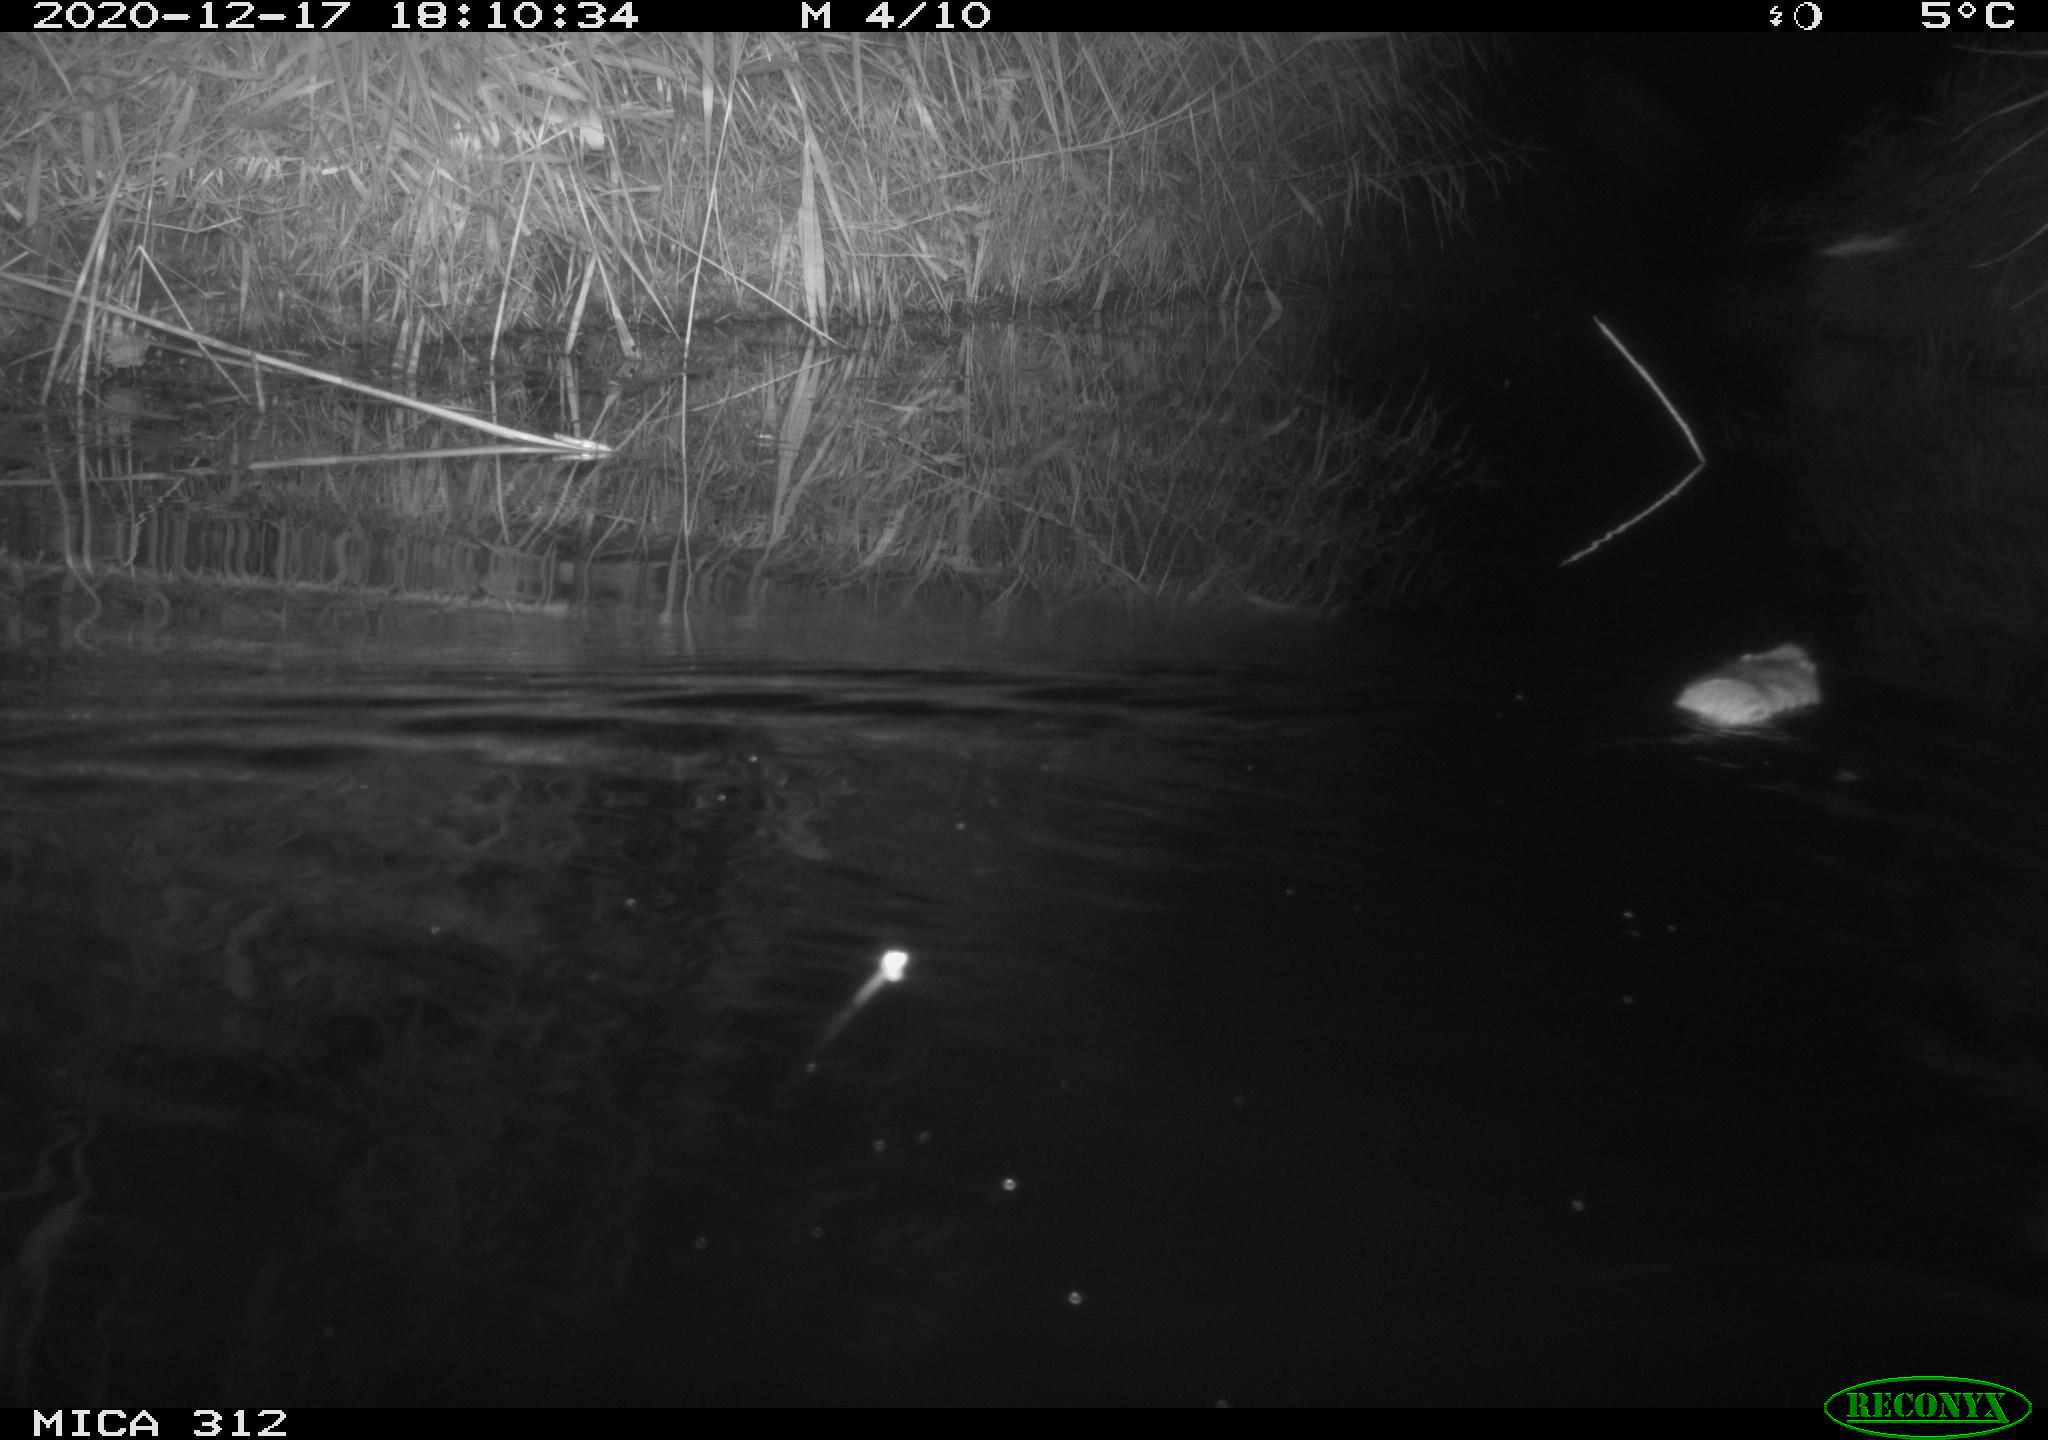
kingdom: Animalia
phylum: Chordata
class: Mammalia
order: Rodentia
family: Muridae
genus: Rattus
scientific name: Rattus norvegicus
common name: Brown rat
